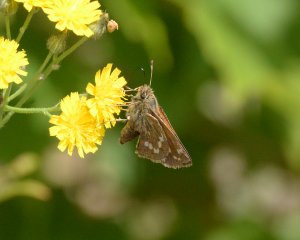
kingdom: Animalia
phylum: Arthropoda
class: Insecta
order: Lepidoptera
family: Hesperiidae
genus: Hesperia
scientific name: Hesperia sassacus
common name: Sassacus Skipper
